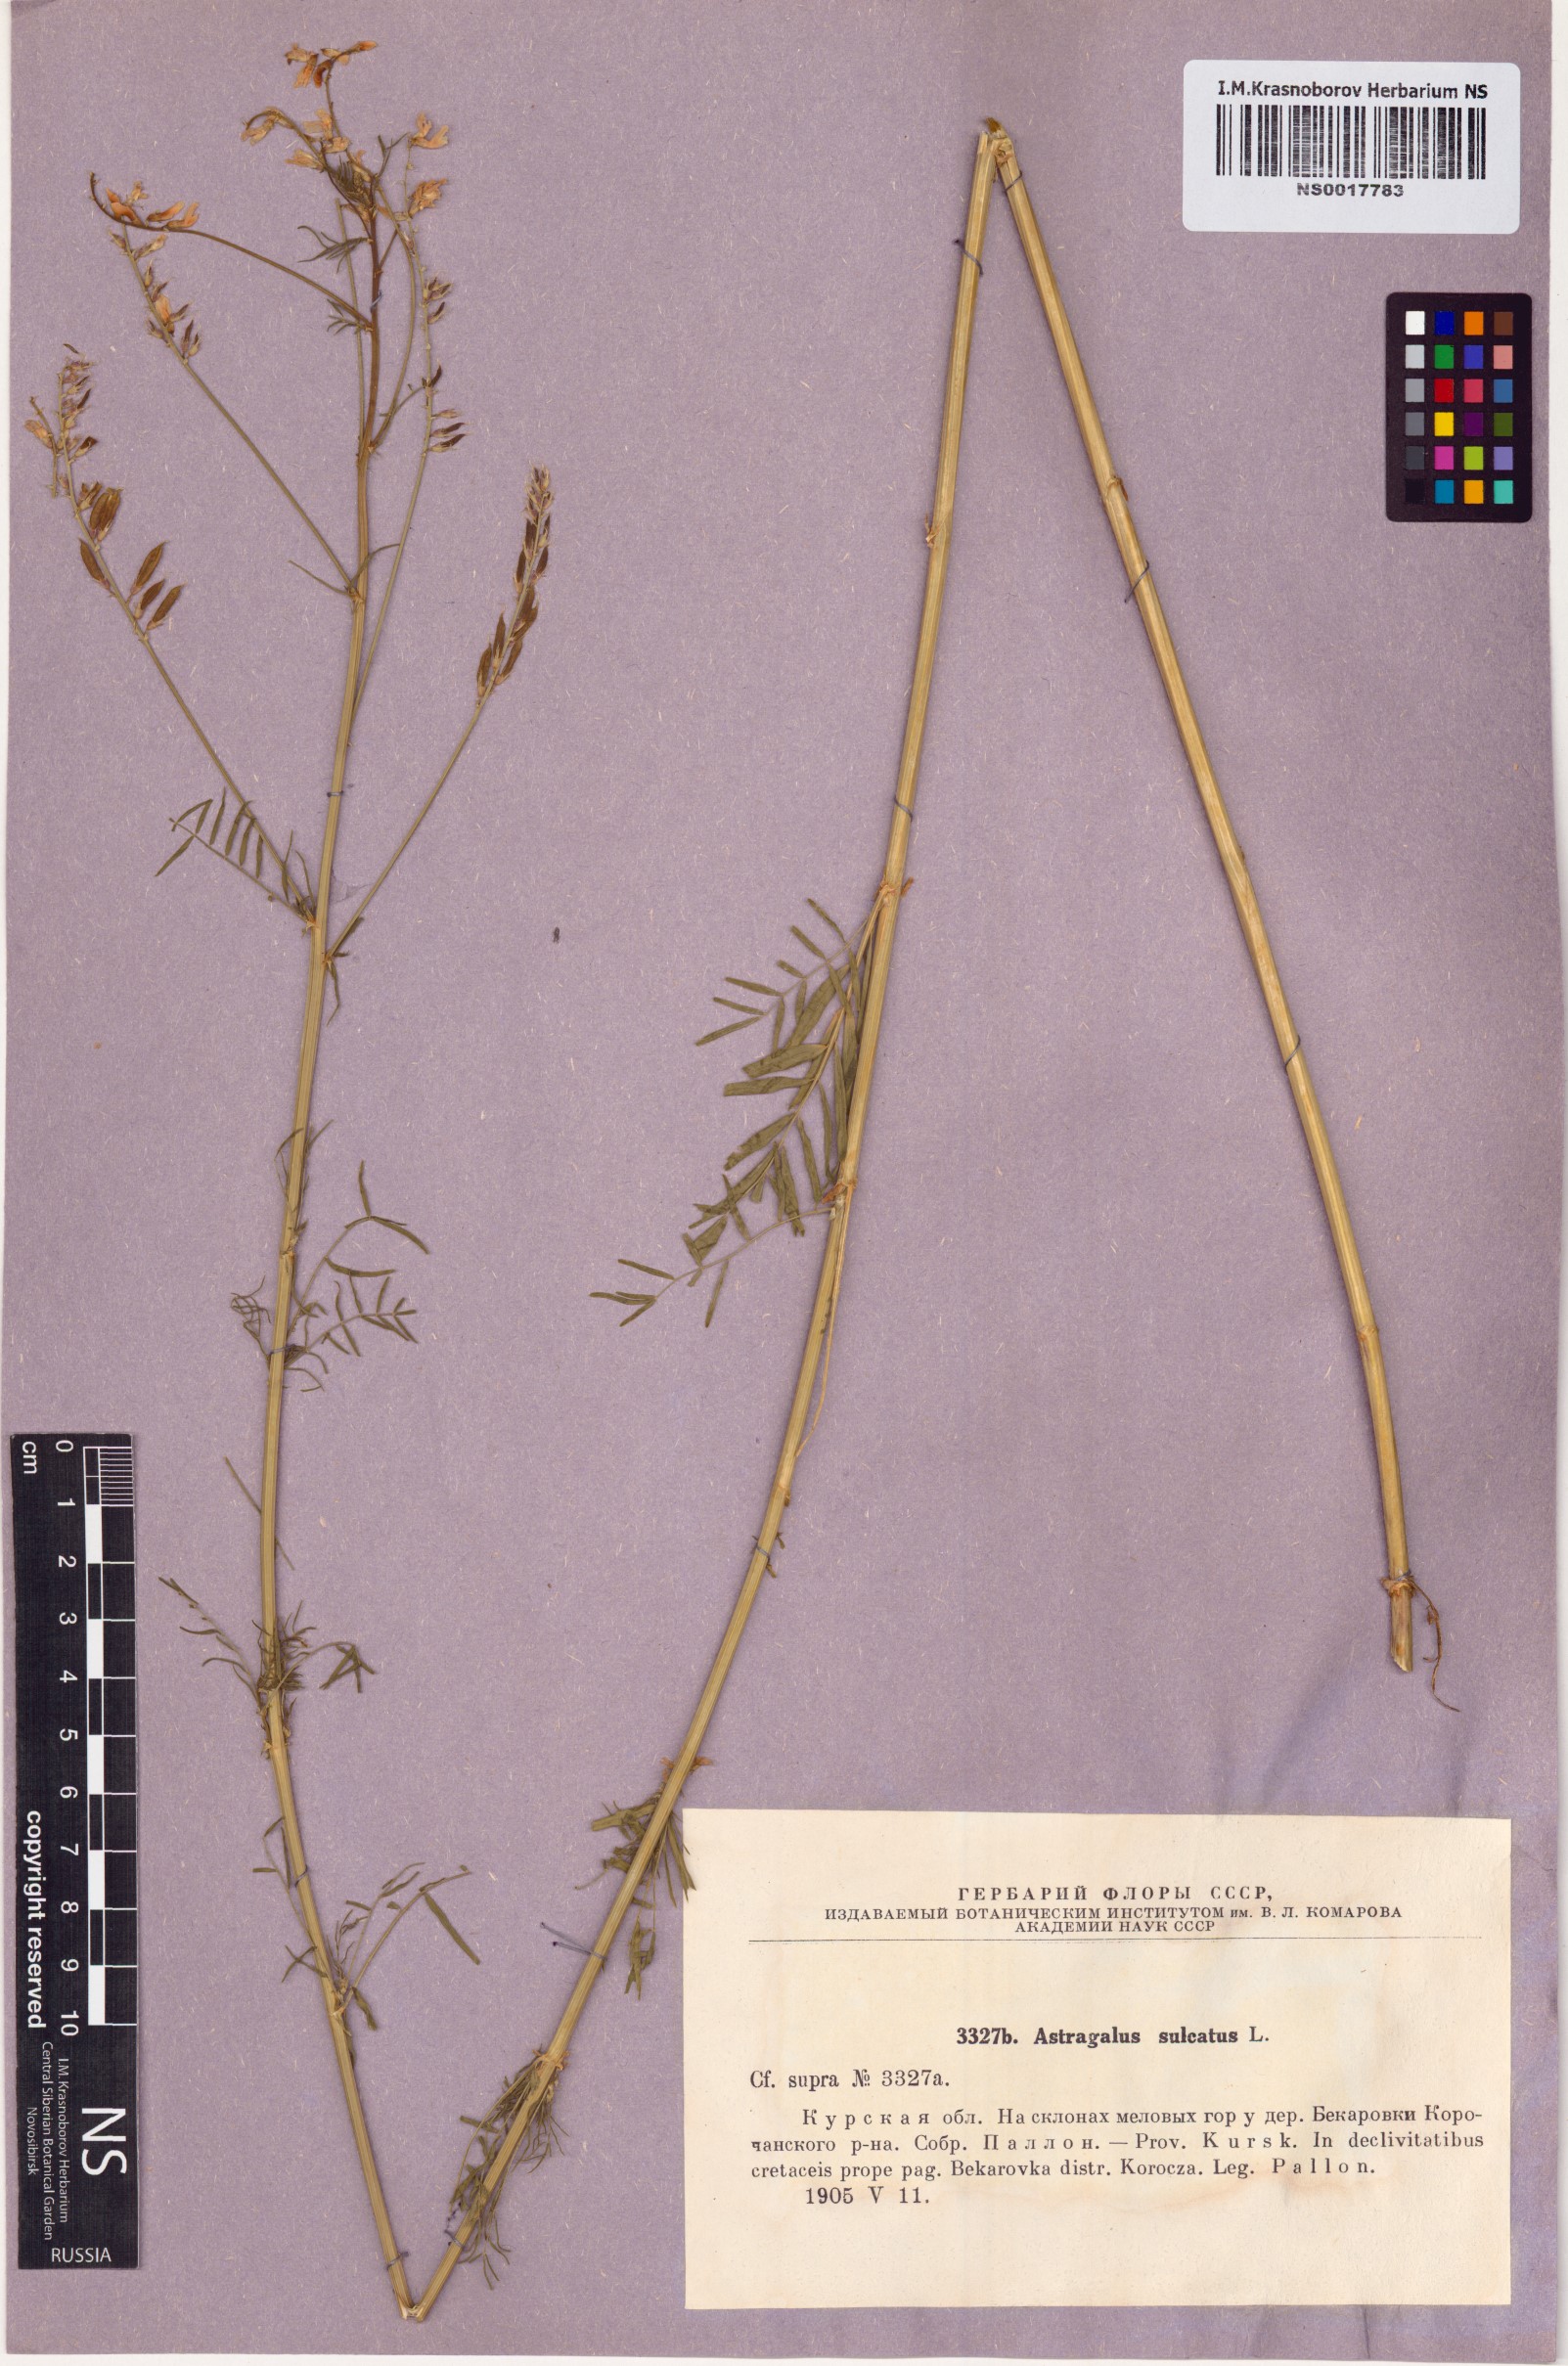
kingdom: Plantae
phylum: Tracheophyta
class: Magnoliopsida
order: Fabales
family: Fabaceae
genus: Astragalus
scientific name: Astragalus sulcatus
